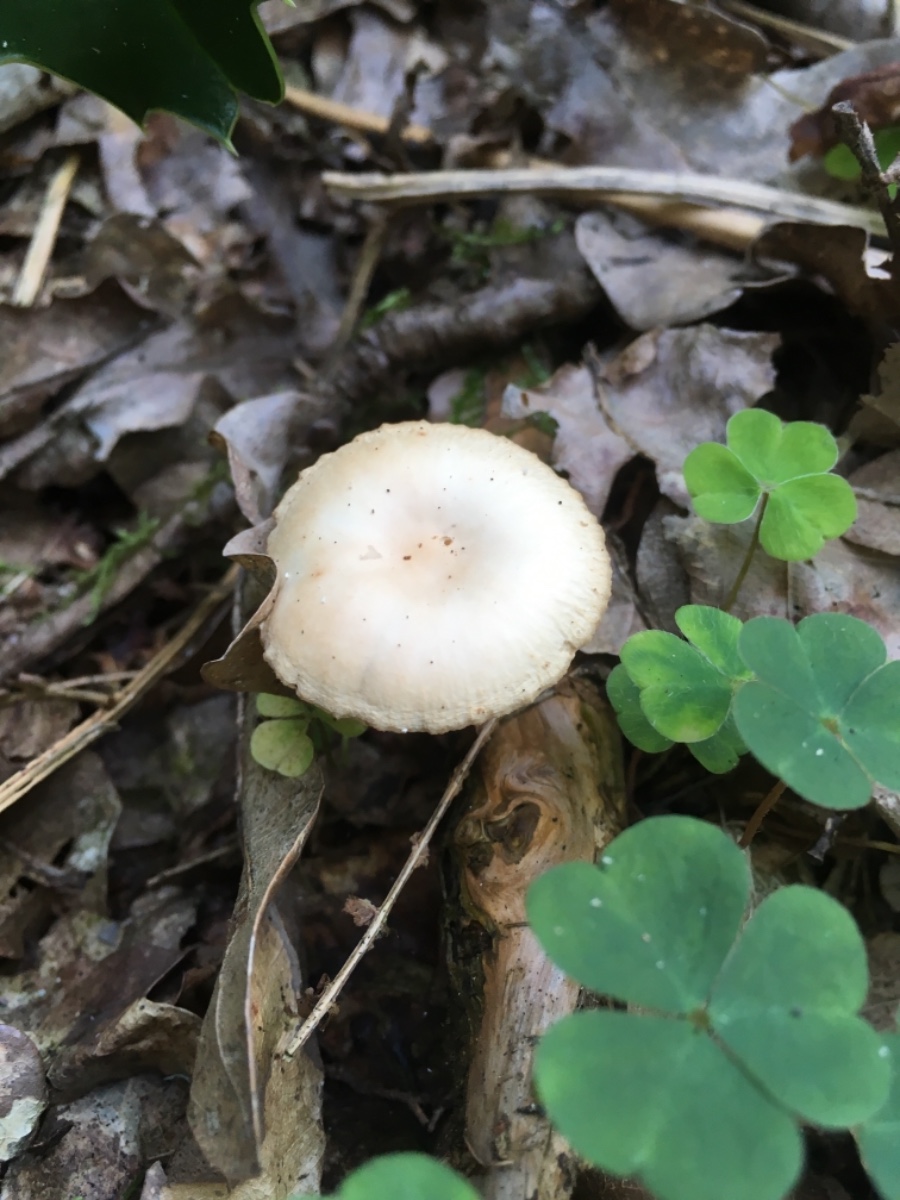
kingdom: Fungi
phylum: Basidiomycota
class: Agaricomycetes
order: Agaricales
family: Omphalotaceae
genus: Gymnopus
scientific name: Gymnopus
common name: fladhat
